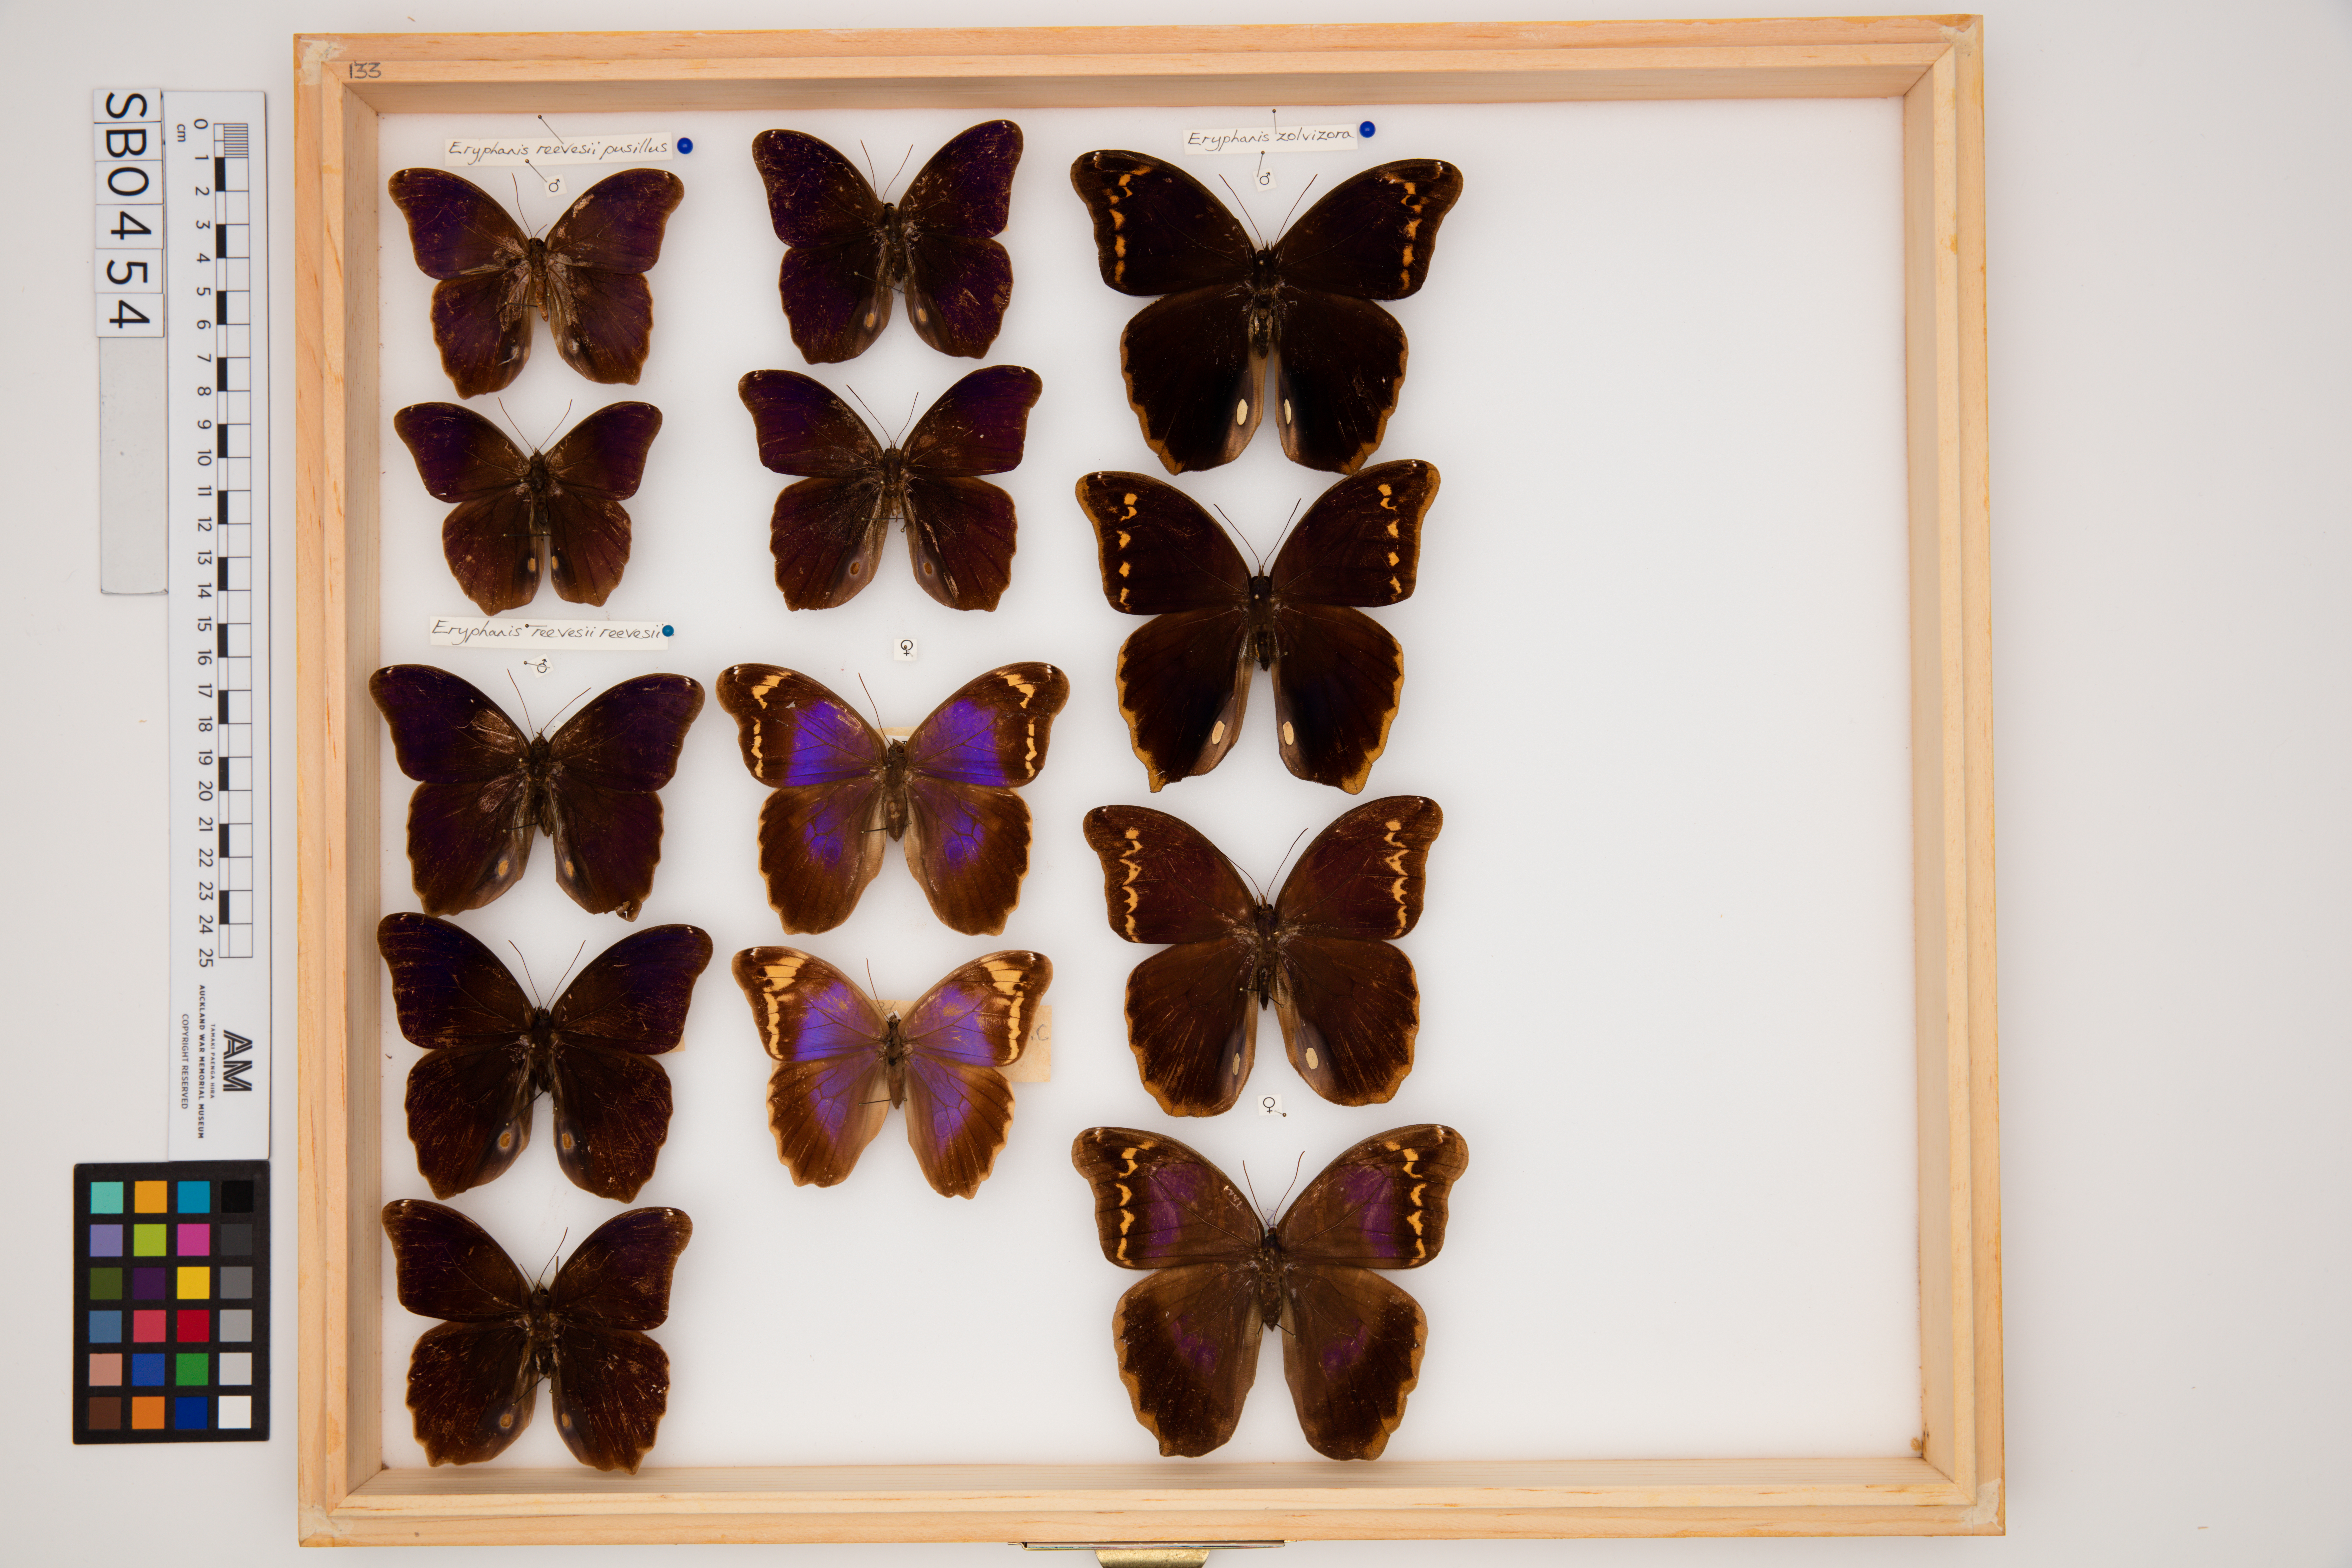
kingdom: Animalia
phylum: Arthropoda
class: Insecta
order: Lepidoptera
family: Nymphalidae
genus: Eryphanis
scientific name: Eryphanis reevesii
